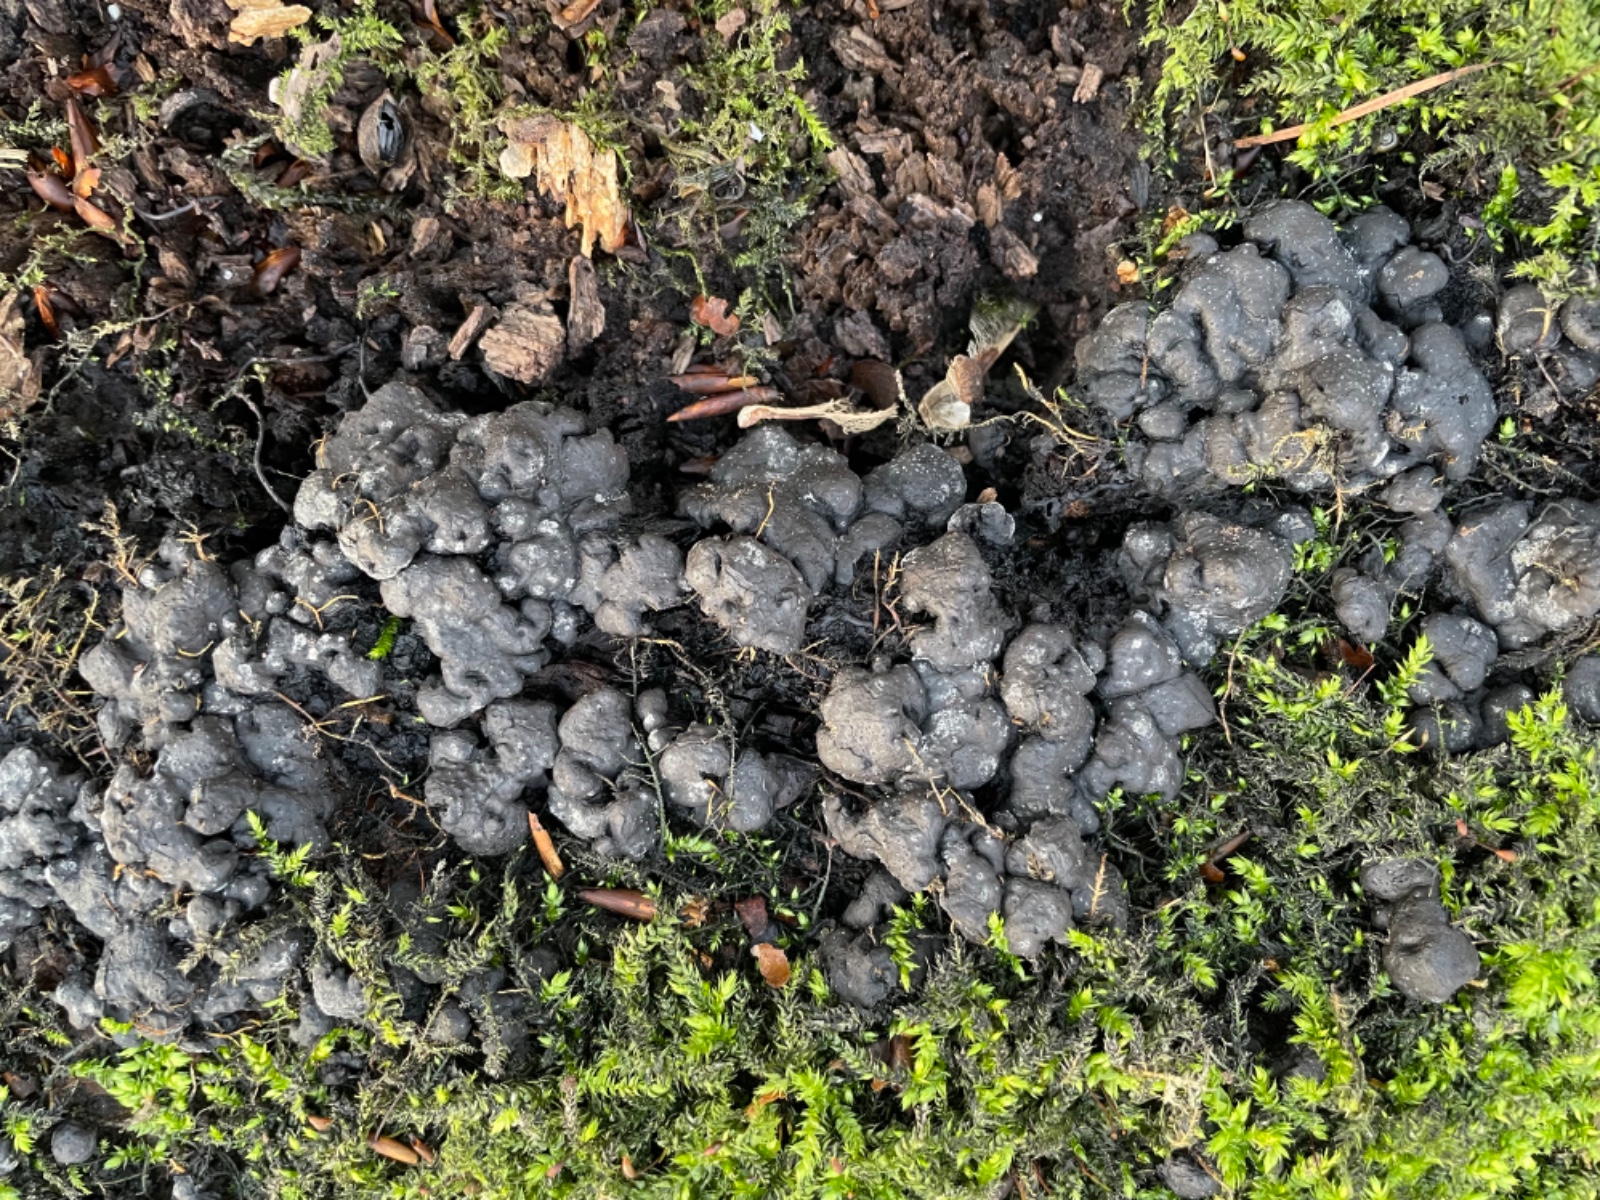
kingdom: Fungi
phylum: Ascomycota
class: Sordariomycetes
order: Xylariales
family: Xylariaceae
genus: Kretzschmaria
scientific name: Kretzschmaria deusta
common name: stor kulsvamp
